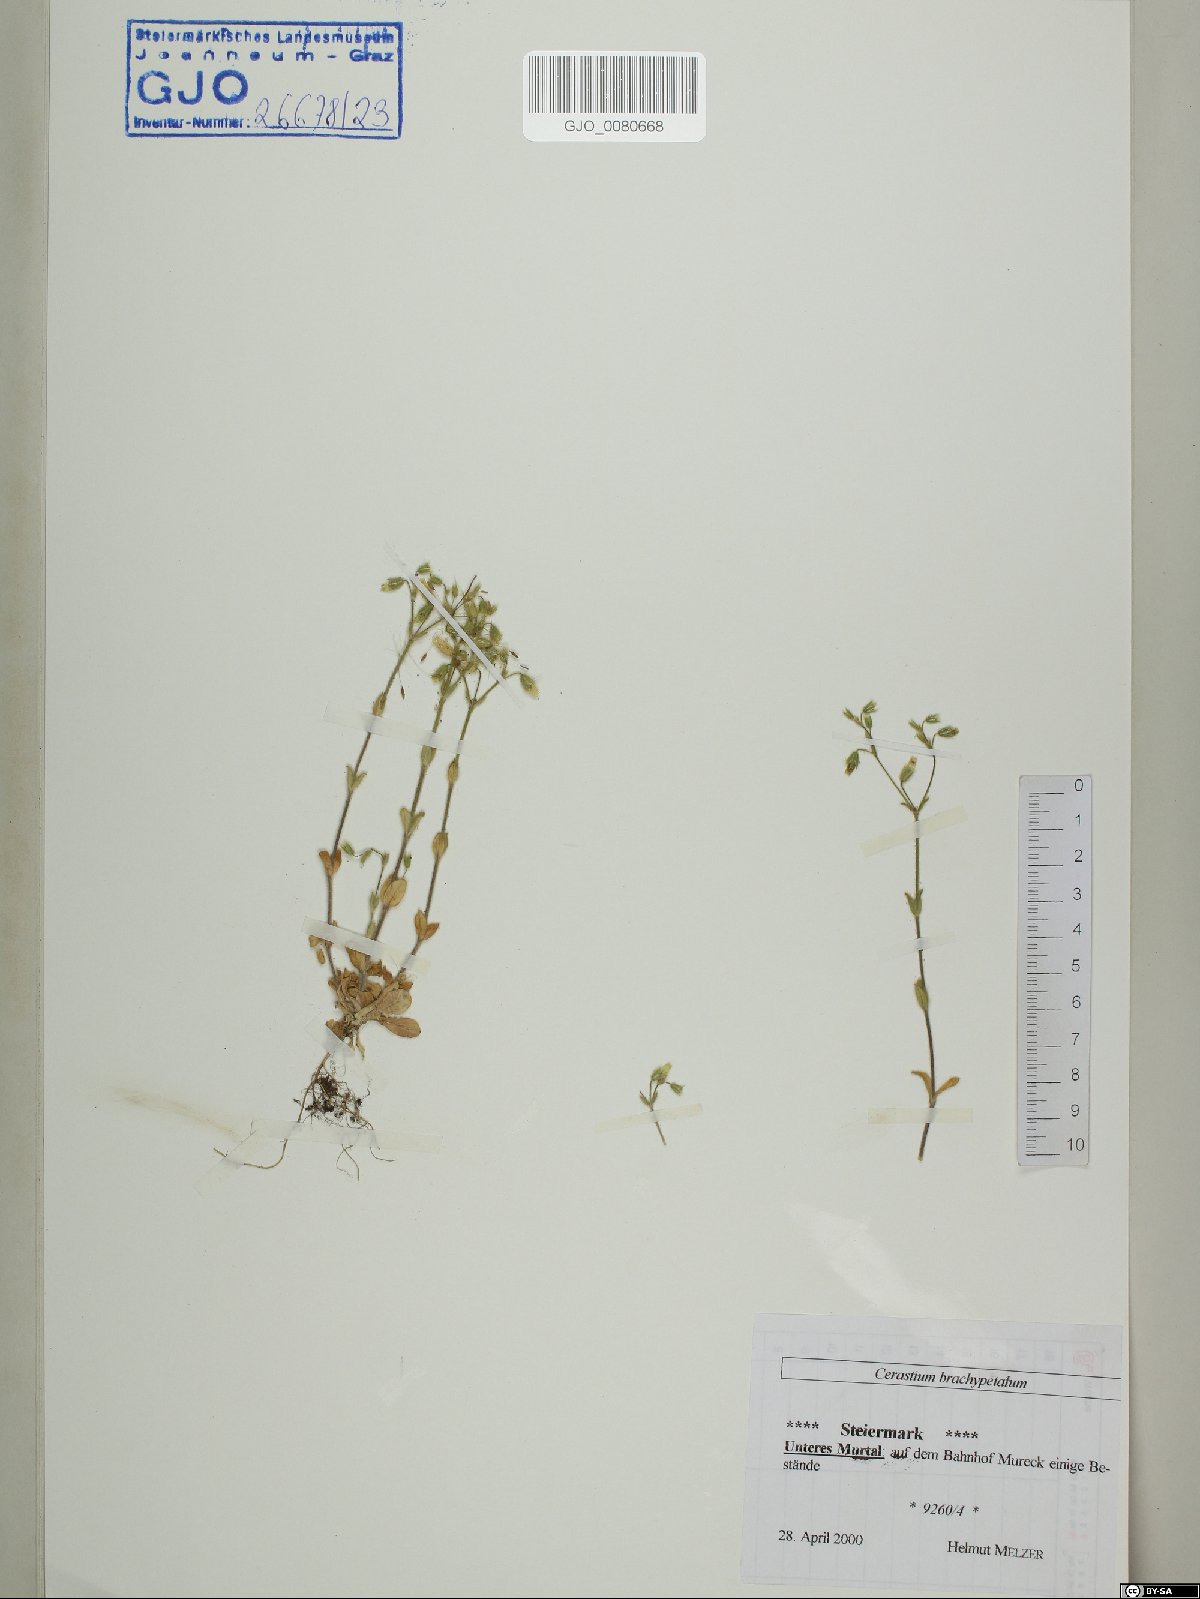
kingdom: Plantae
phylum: Tracheophyta
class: Magnoliopsida
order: Caryophyllales
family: Caryophyllaceae
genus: Cerastium
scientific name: Cerastium brachypetalum
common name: Grey mouse-ear
